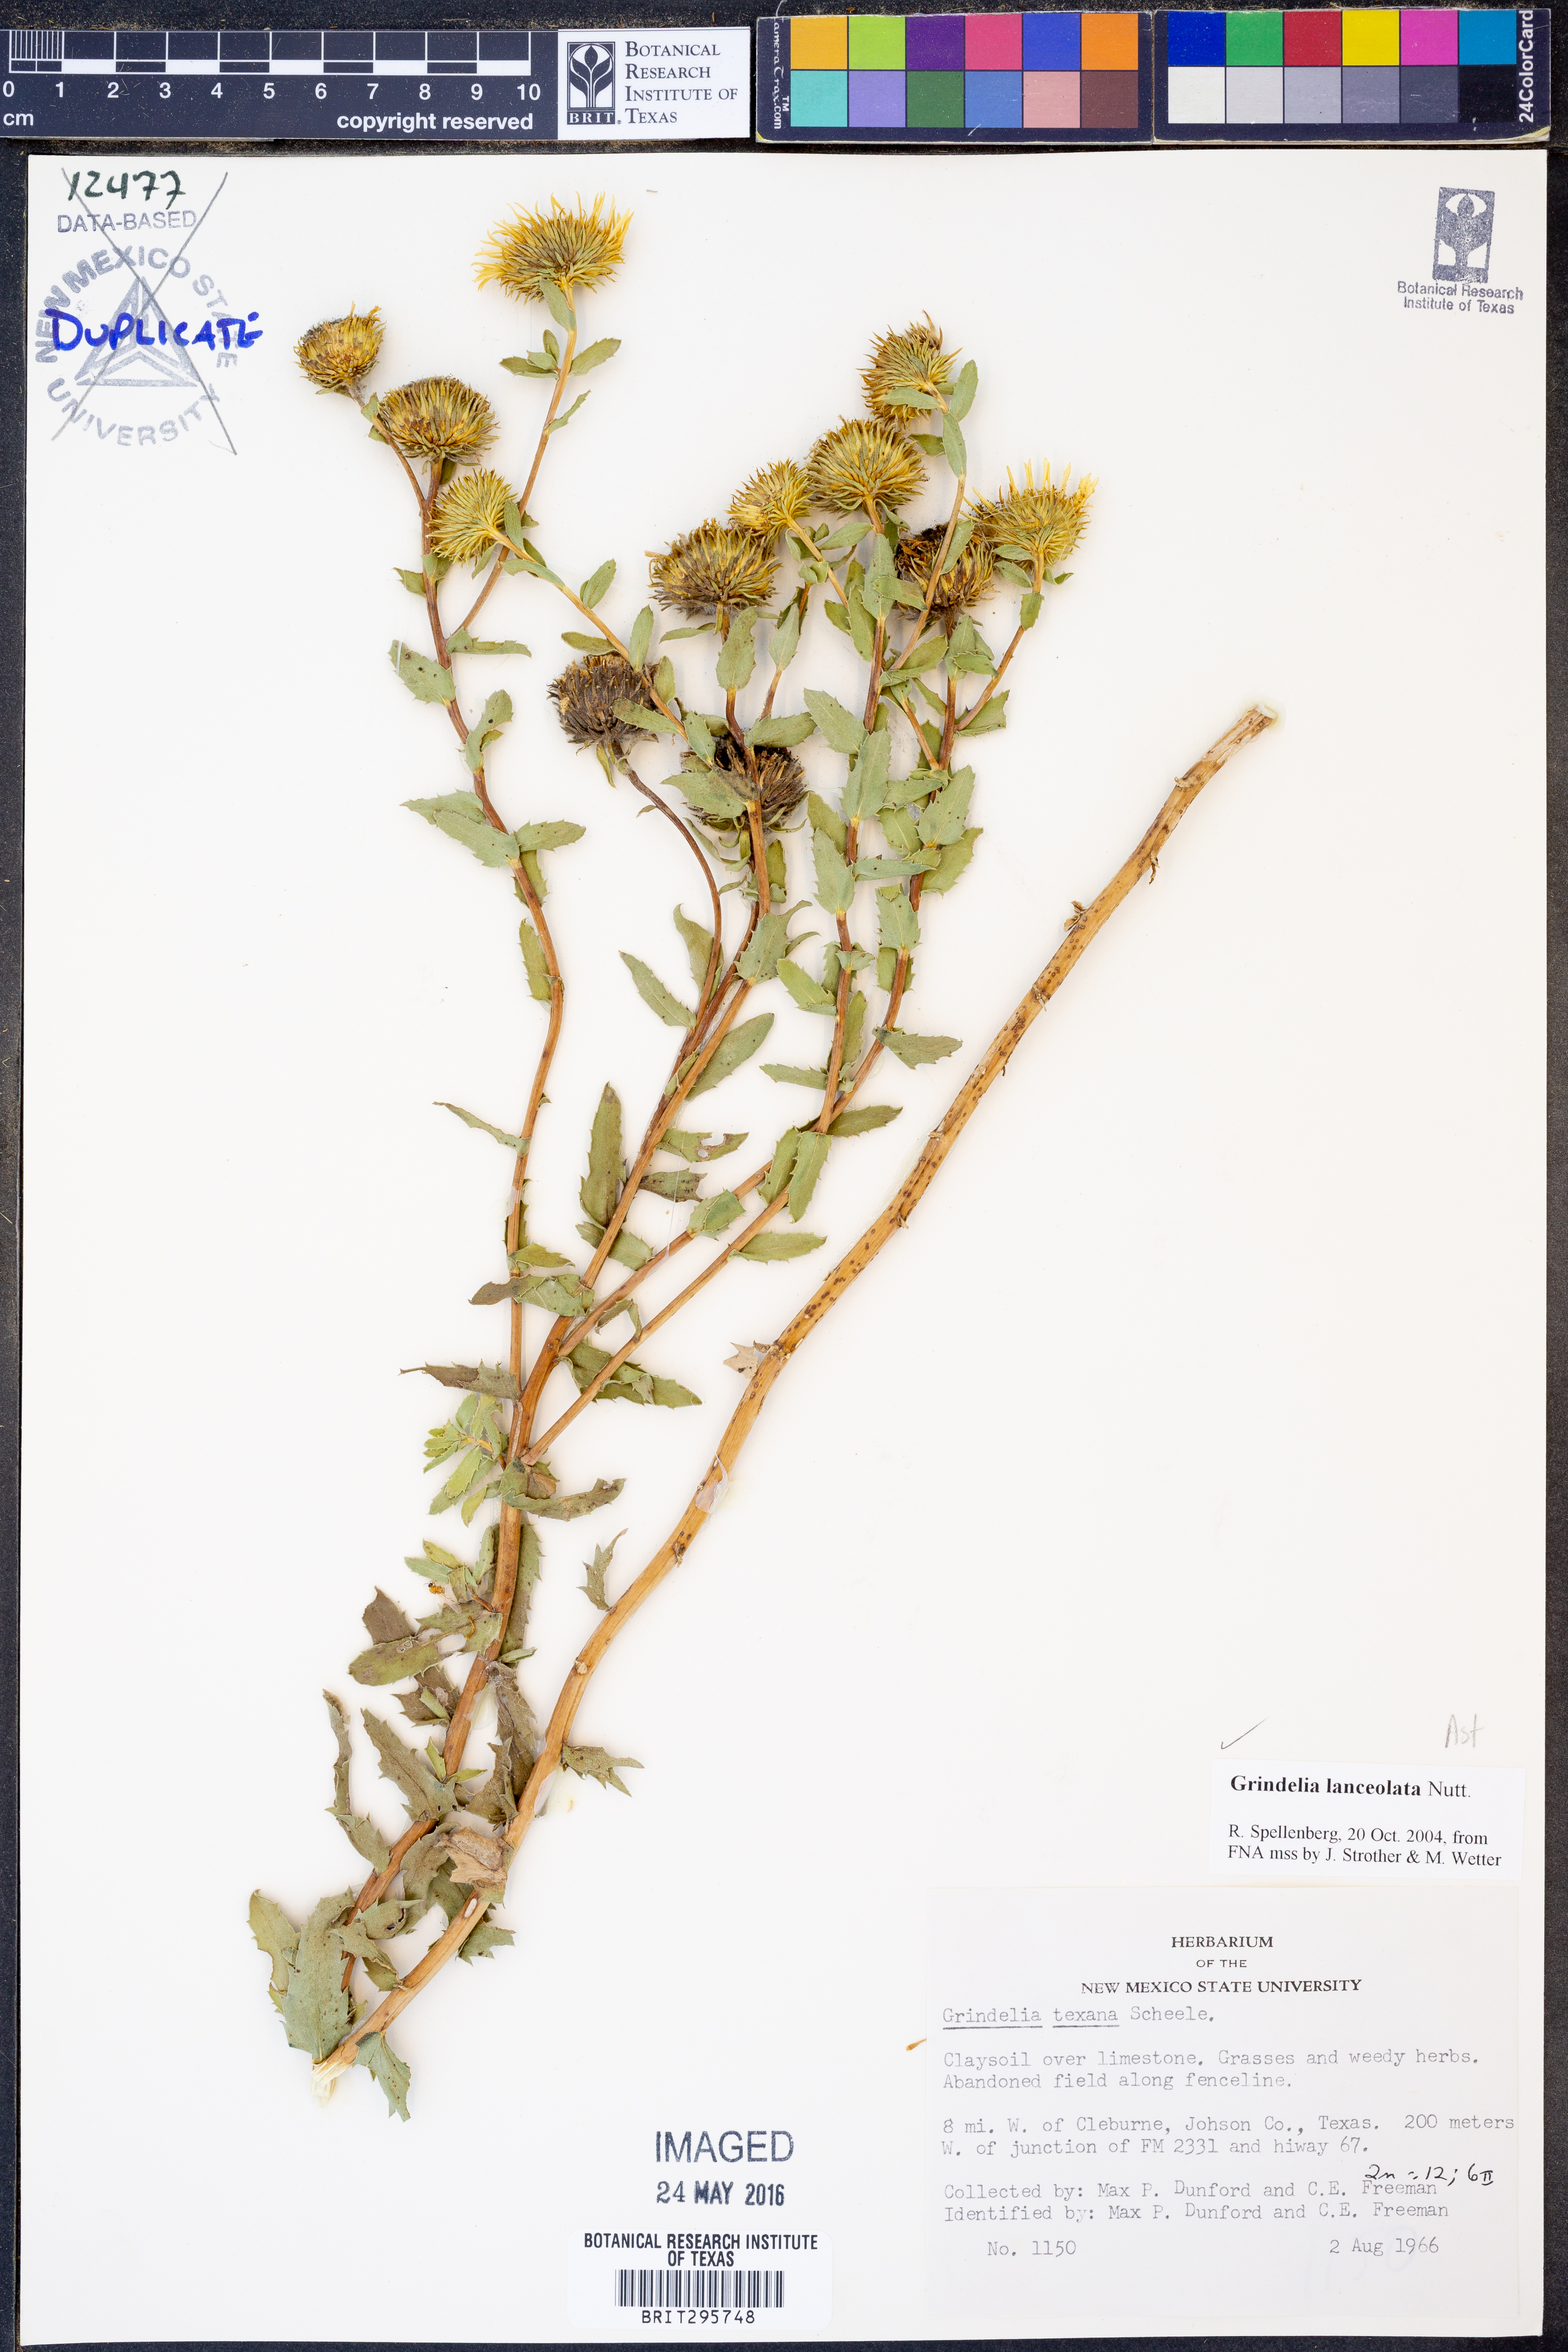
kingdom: Plantae
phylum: Tracheophyta
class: Magnoliopsida
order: Asterales
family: Asteraceae
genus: Grindelia
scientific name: Grindelia lanceolata
